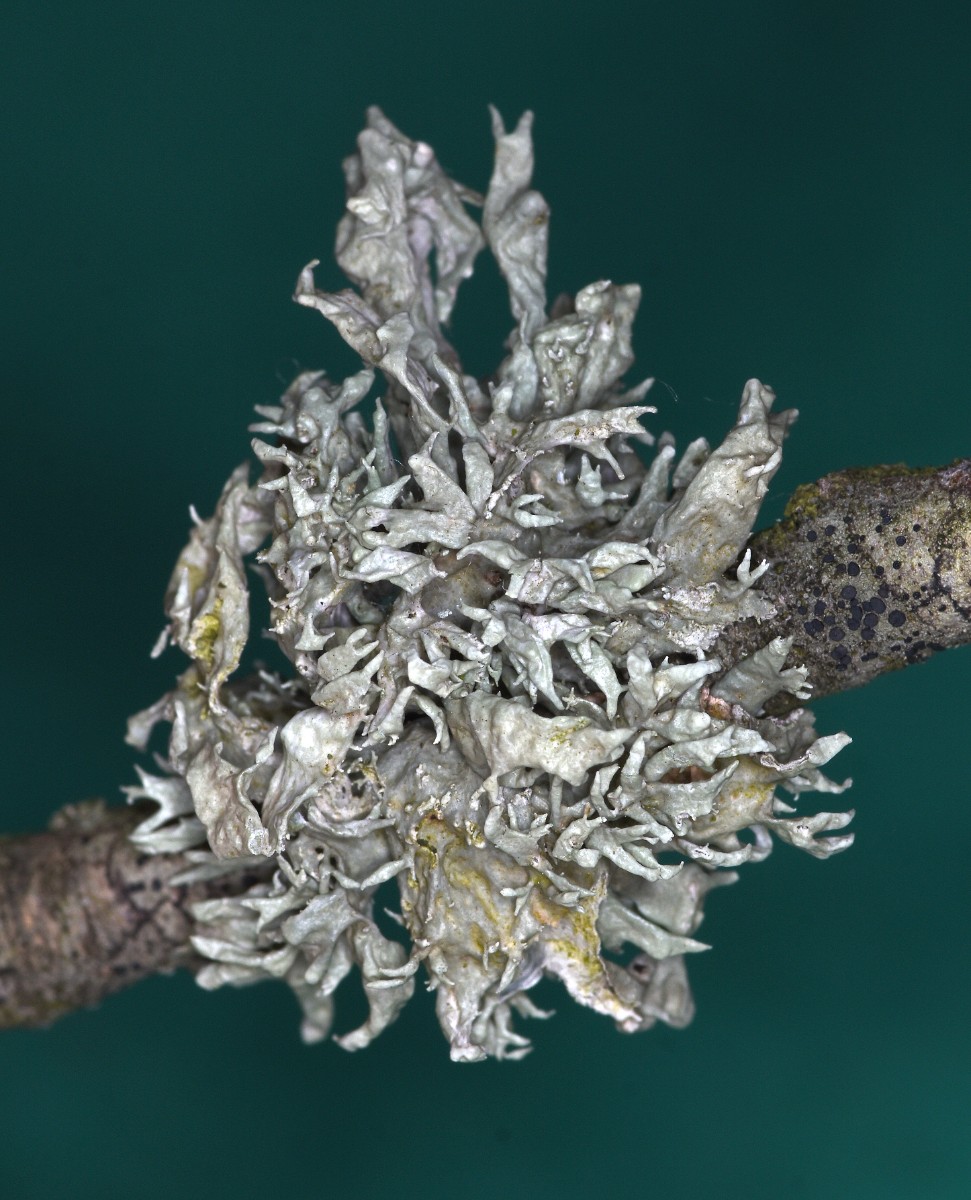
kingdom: Fungi
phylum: Ascomycota
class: Lecanoromycetes
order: Lecanorales
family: Ramalinaceae
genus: Ramalina
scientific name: Ramalina fastigiata
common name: tue-grenlav
